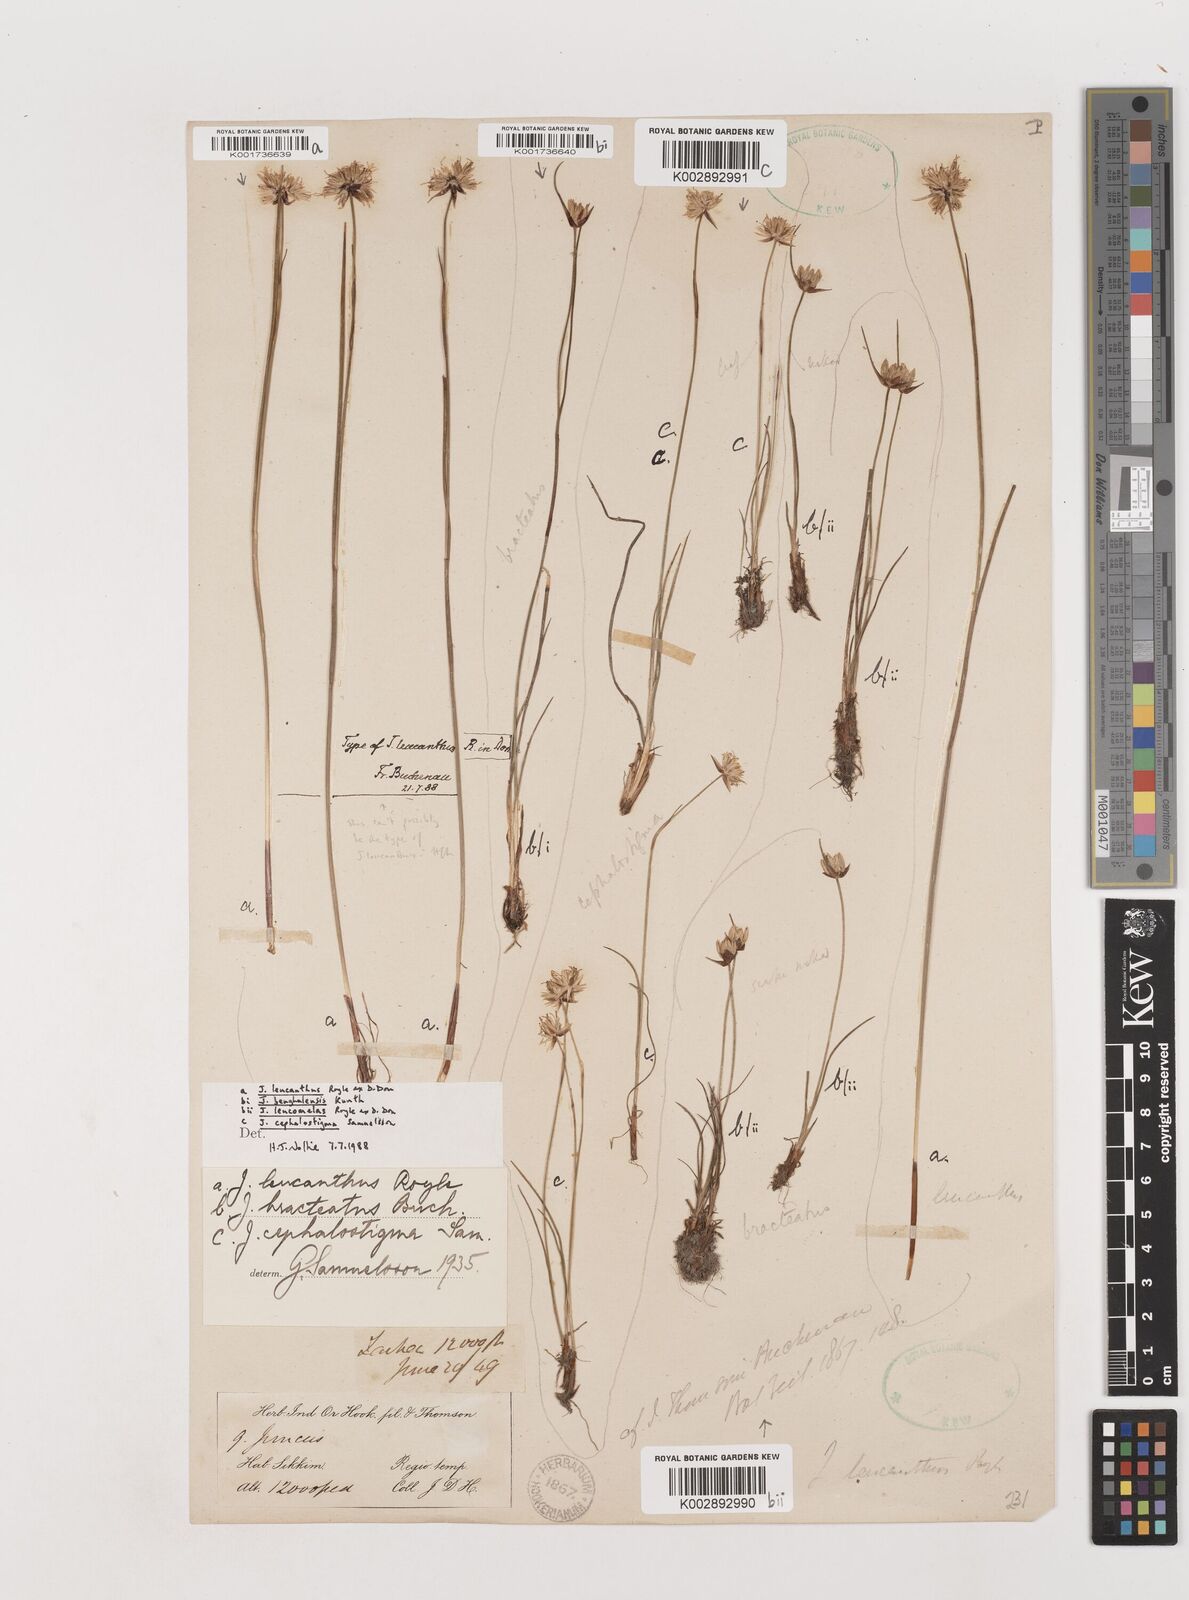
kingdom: Plantae
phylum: Tracheophyta
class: Liliopsida
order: Poales
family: Juncaceae
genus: Juncus
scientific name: Juncus
